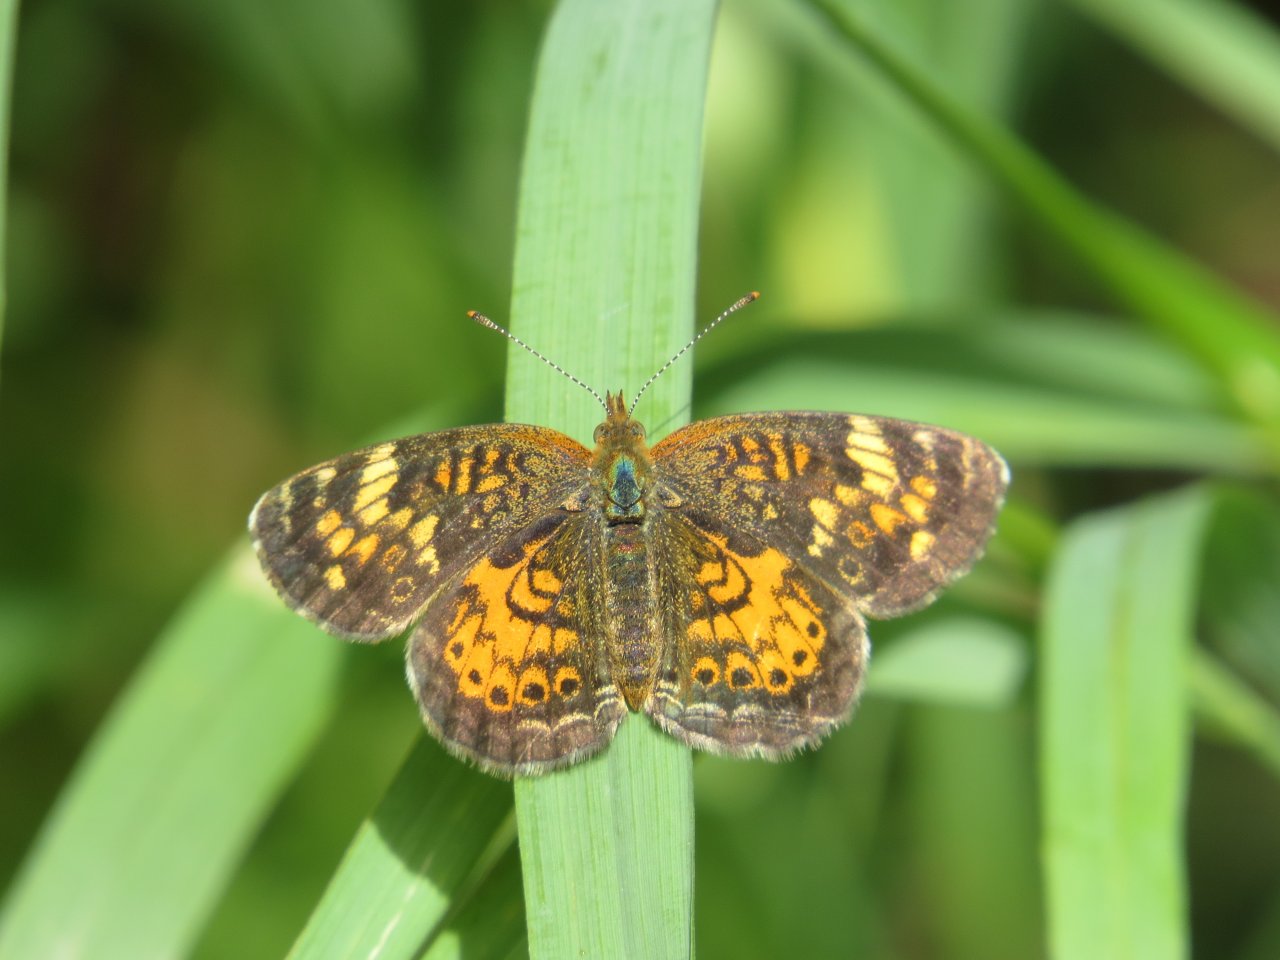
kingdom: Animalia
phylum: Arthropoda
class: Insecta
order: Lepidoptera
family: Nymphalidae
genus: Phyciodes
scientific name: Phyciodes batesii
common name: Tawny Crescent
